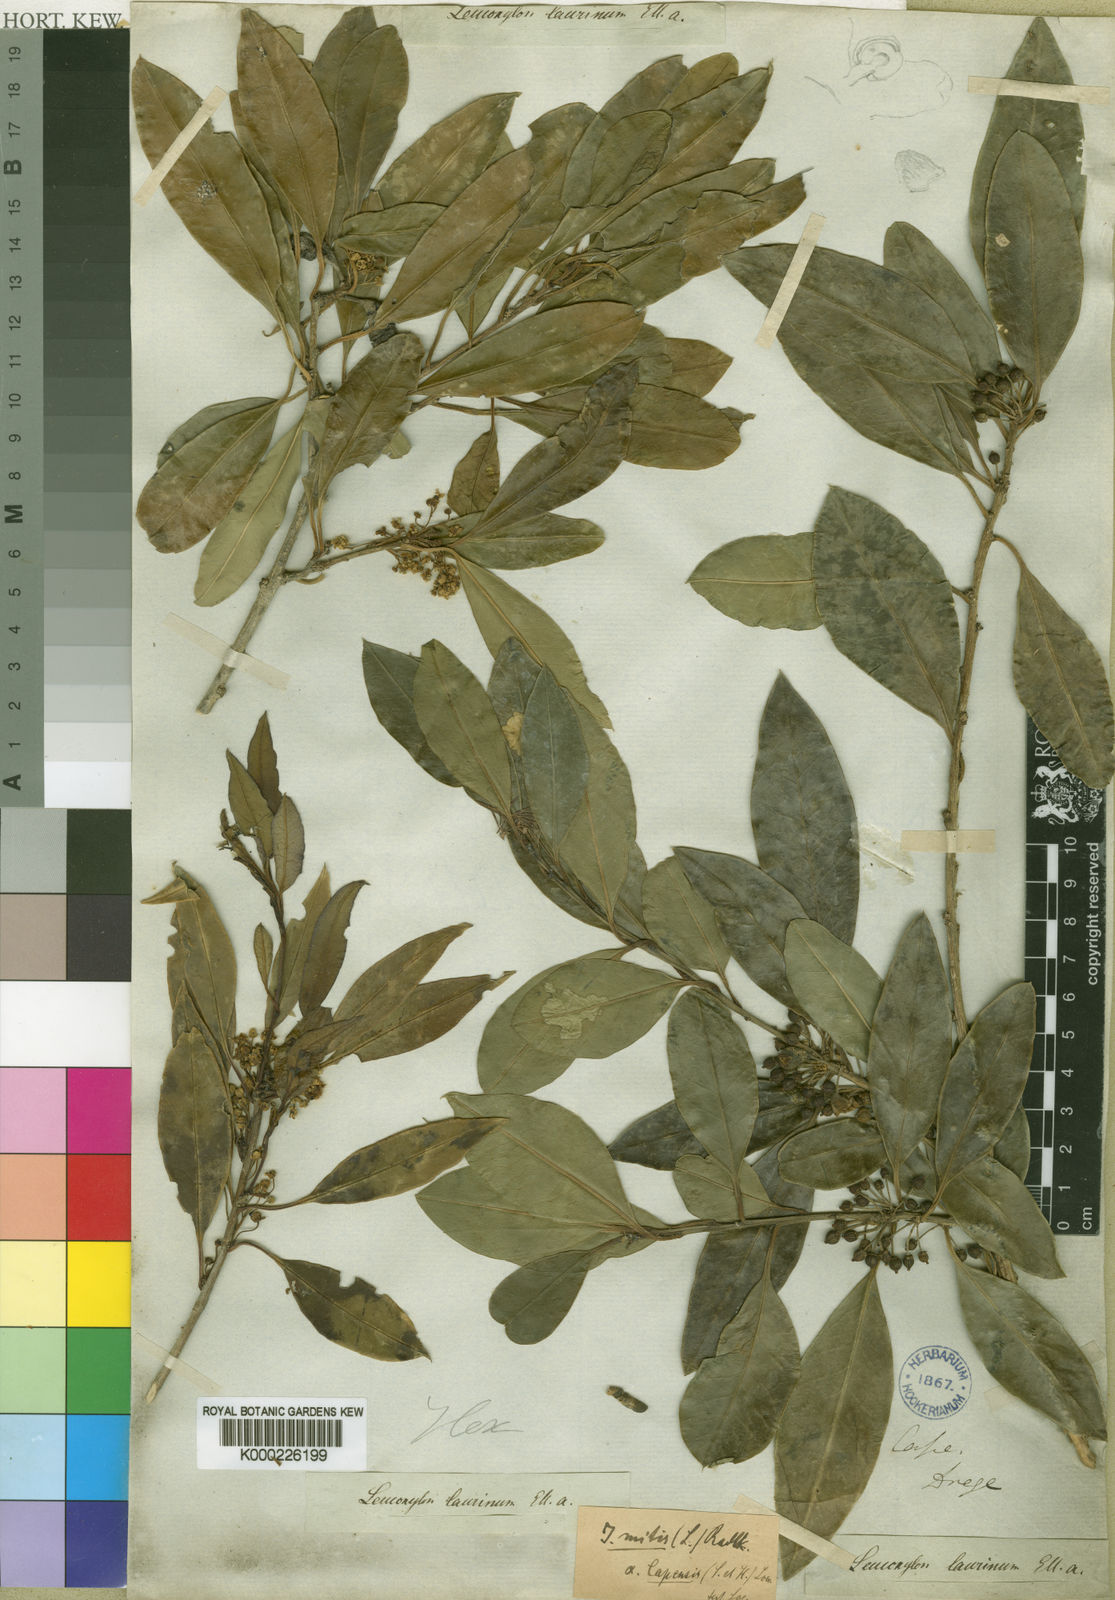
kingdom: Plantae
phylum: Tracheophyta
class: Magnoliopsida
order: Aquifoliales
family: Aquifoliaceae
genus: Ilex
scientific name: Ilex mitis
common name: African holly
